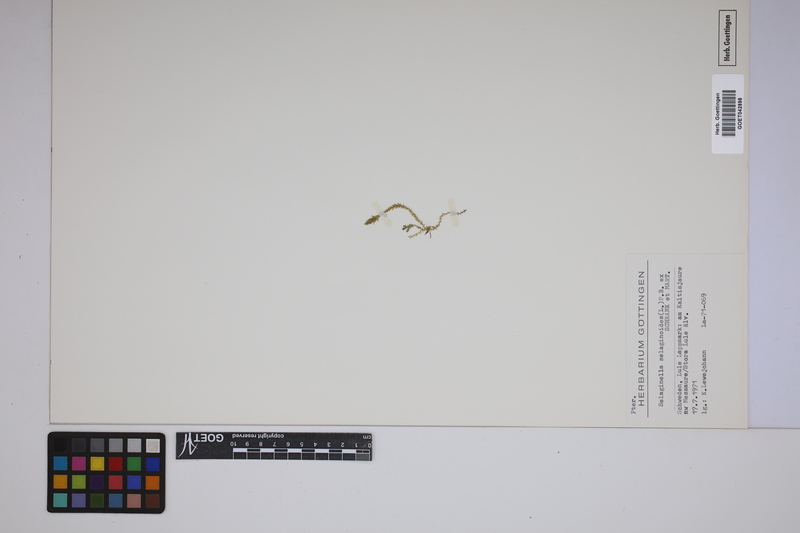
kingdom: Plantae
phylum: Tracheophyta
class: Lycopodiopsida
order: Selaginellales
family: Selaginellaceae
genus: Selaginella
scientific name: Selaginella selaginoides
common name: Prickly mountain-moss
